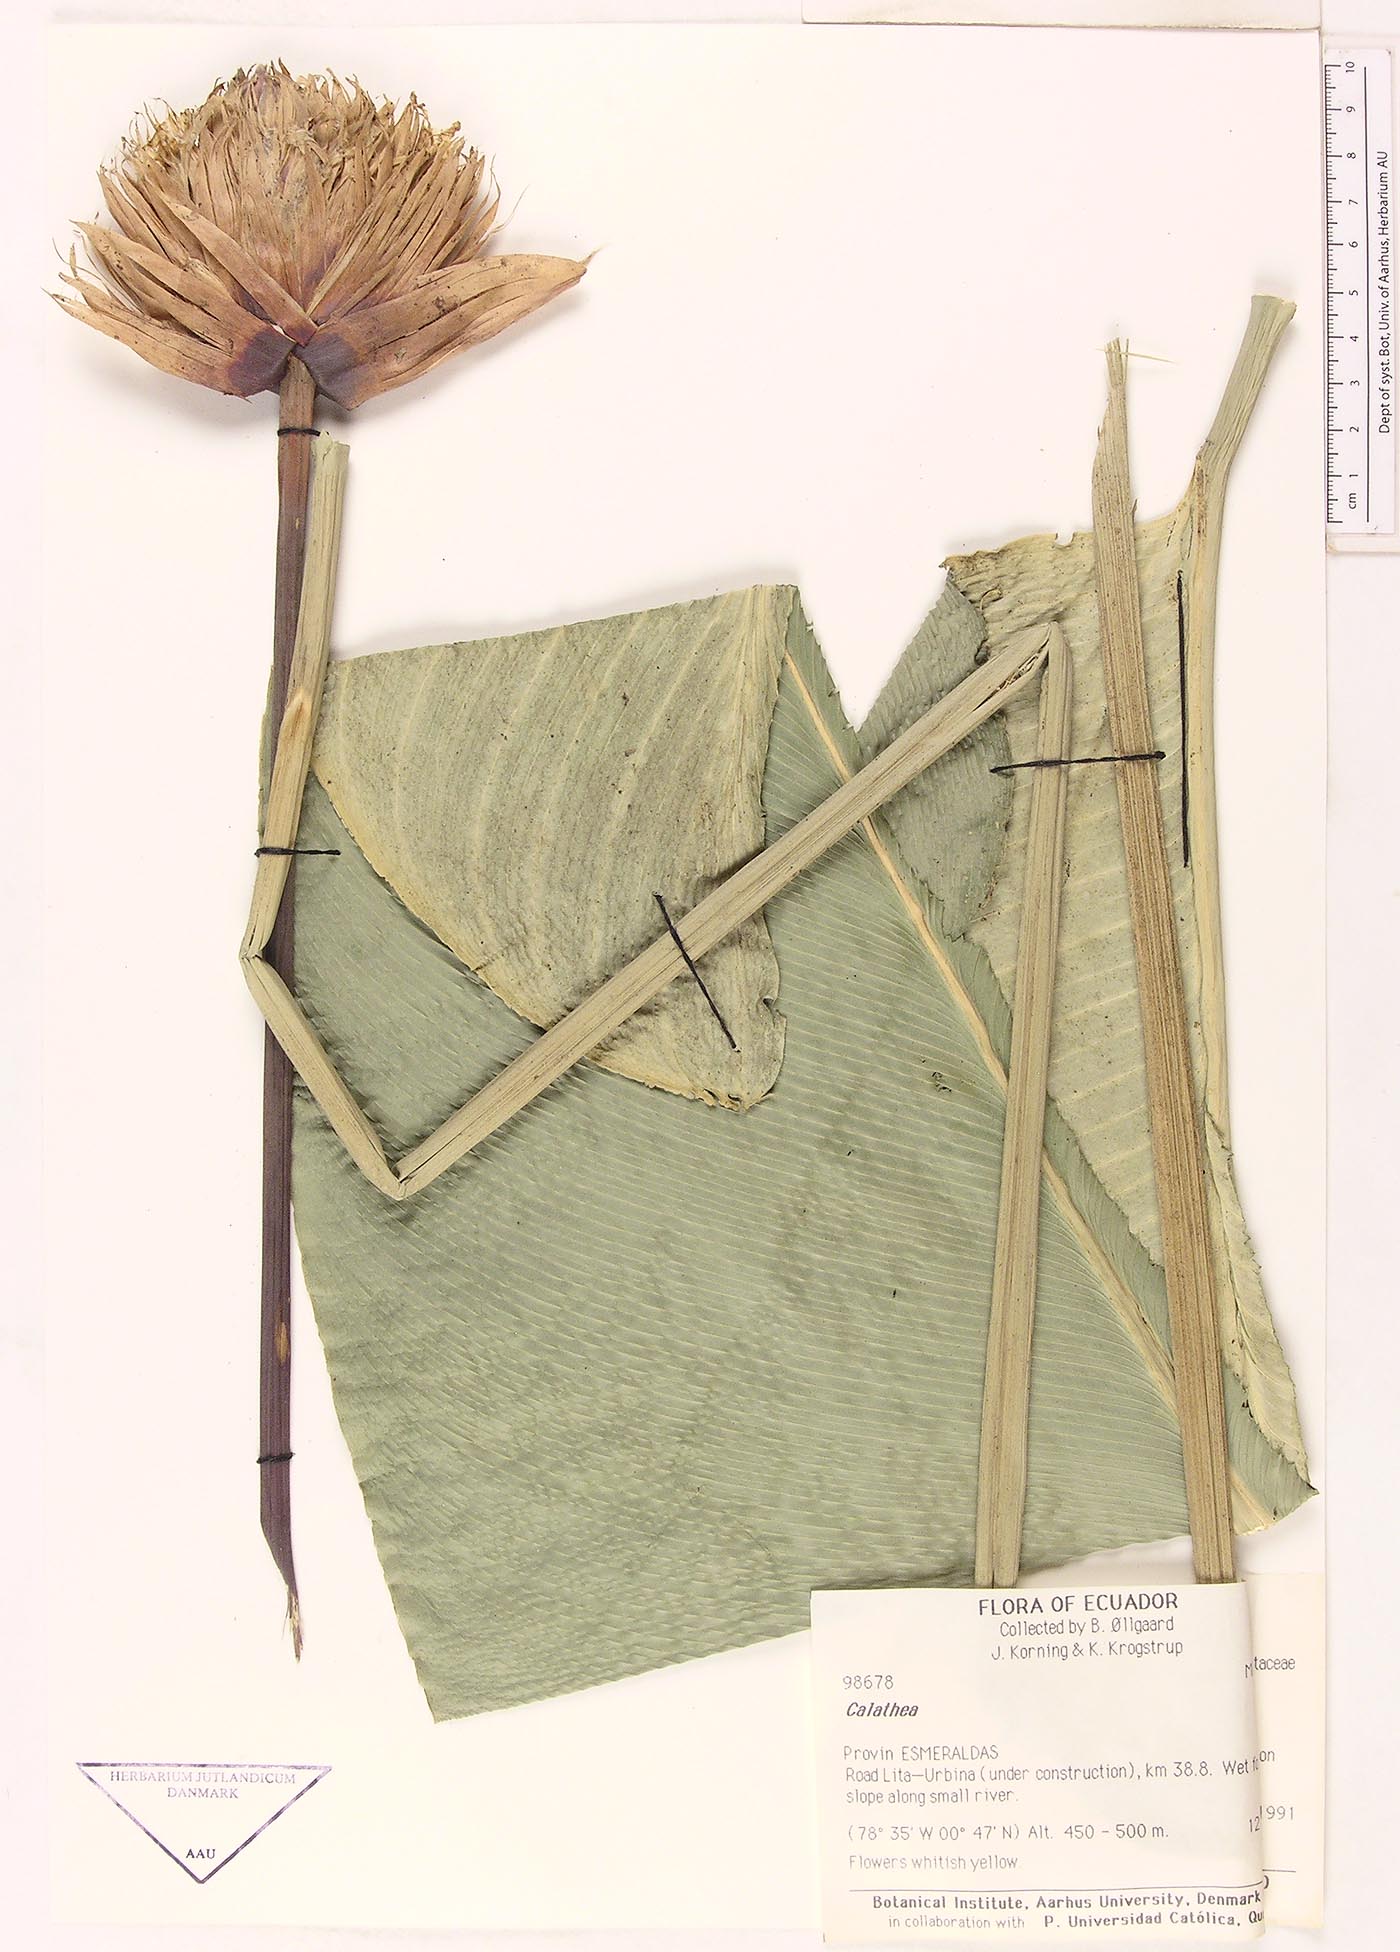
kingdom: Plantae
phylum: Tracheophyta
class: Liliopsida
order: Zingiberales
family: Marantaceae
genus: Calathea
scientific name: Calathea
